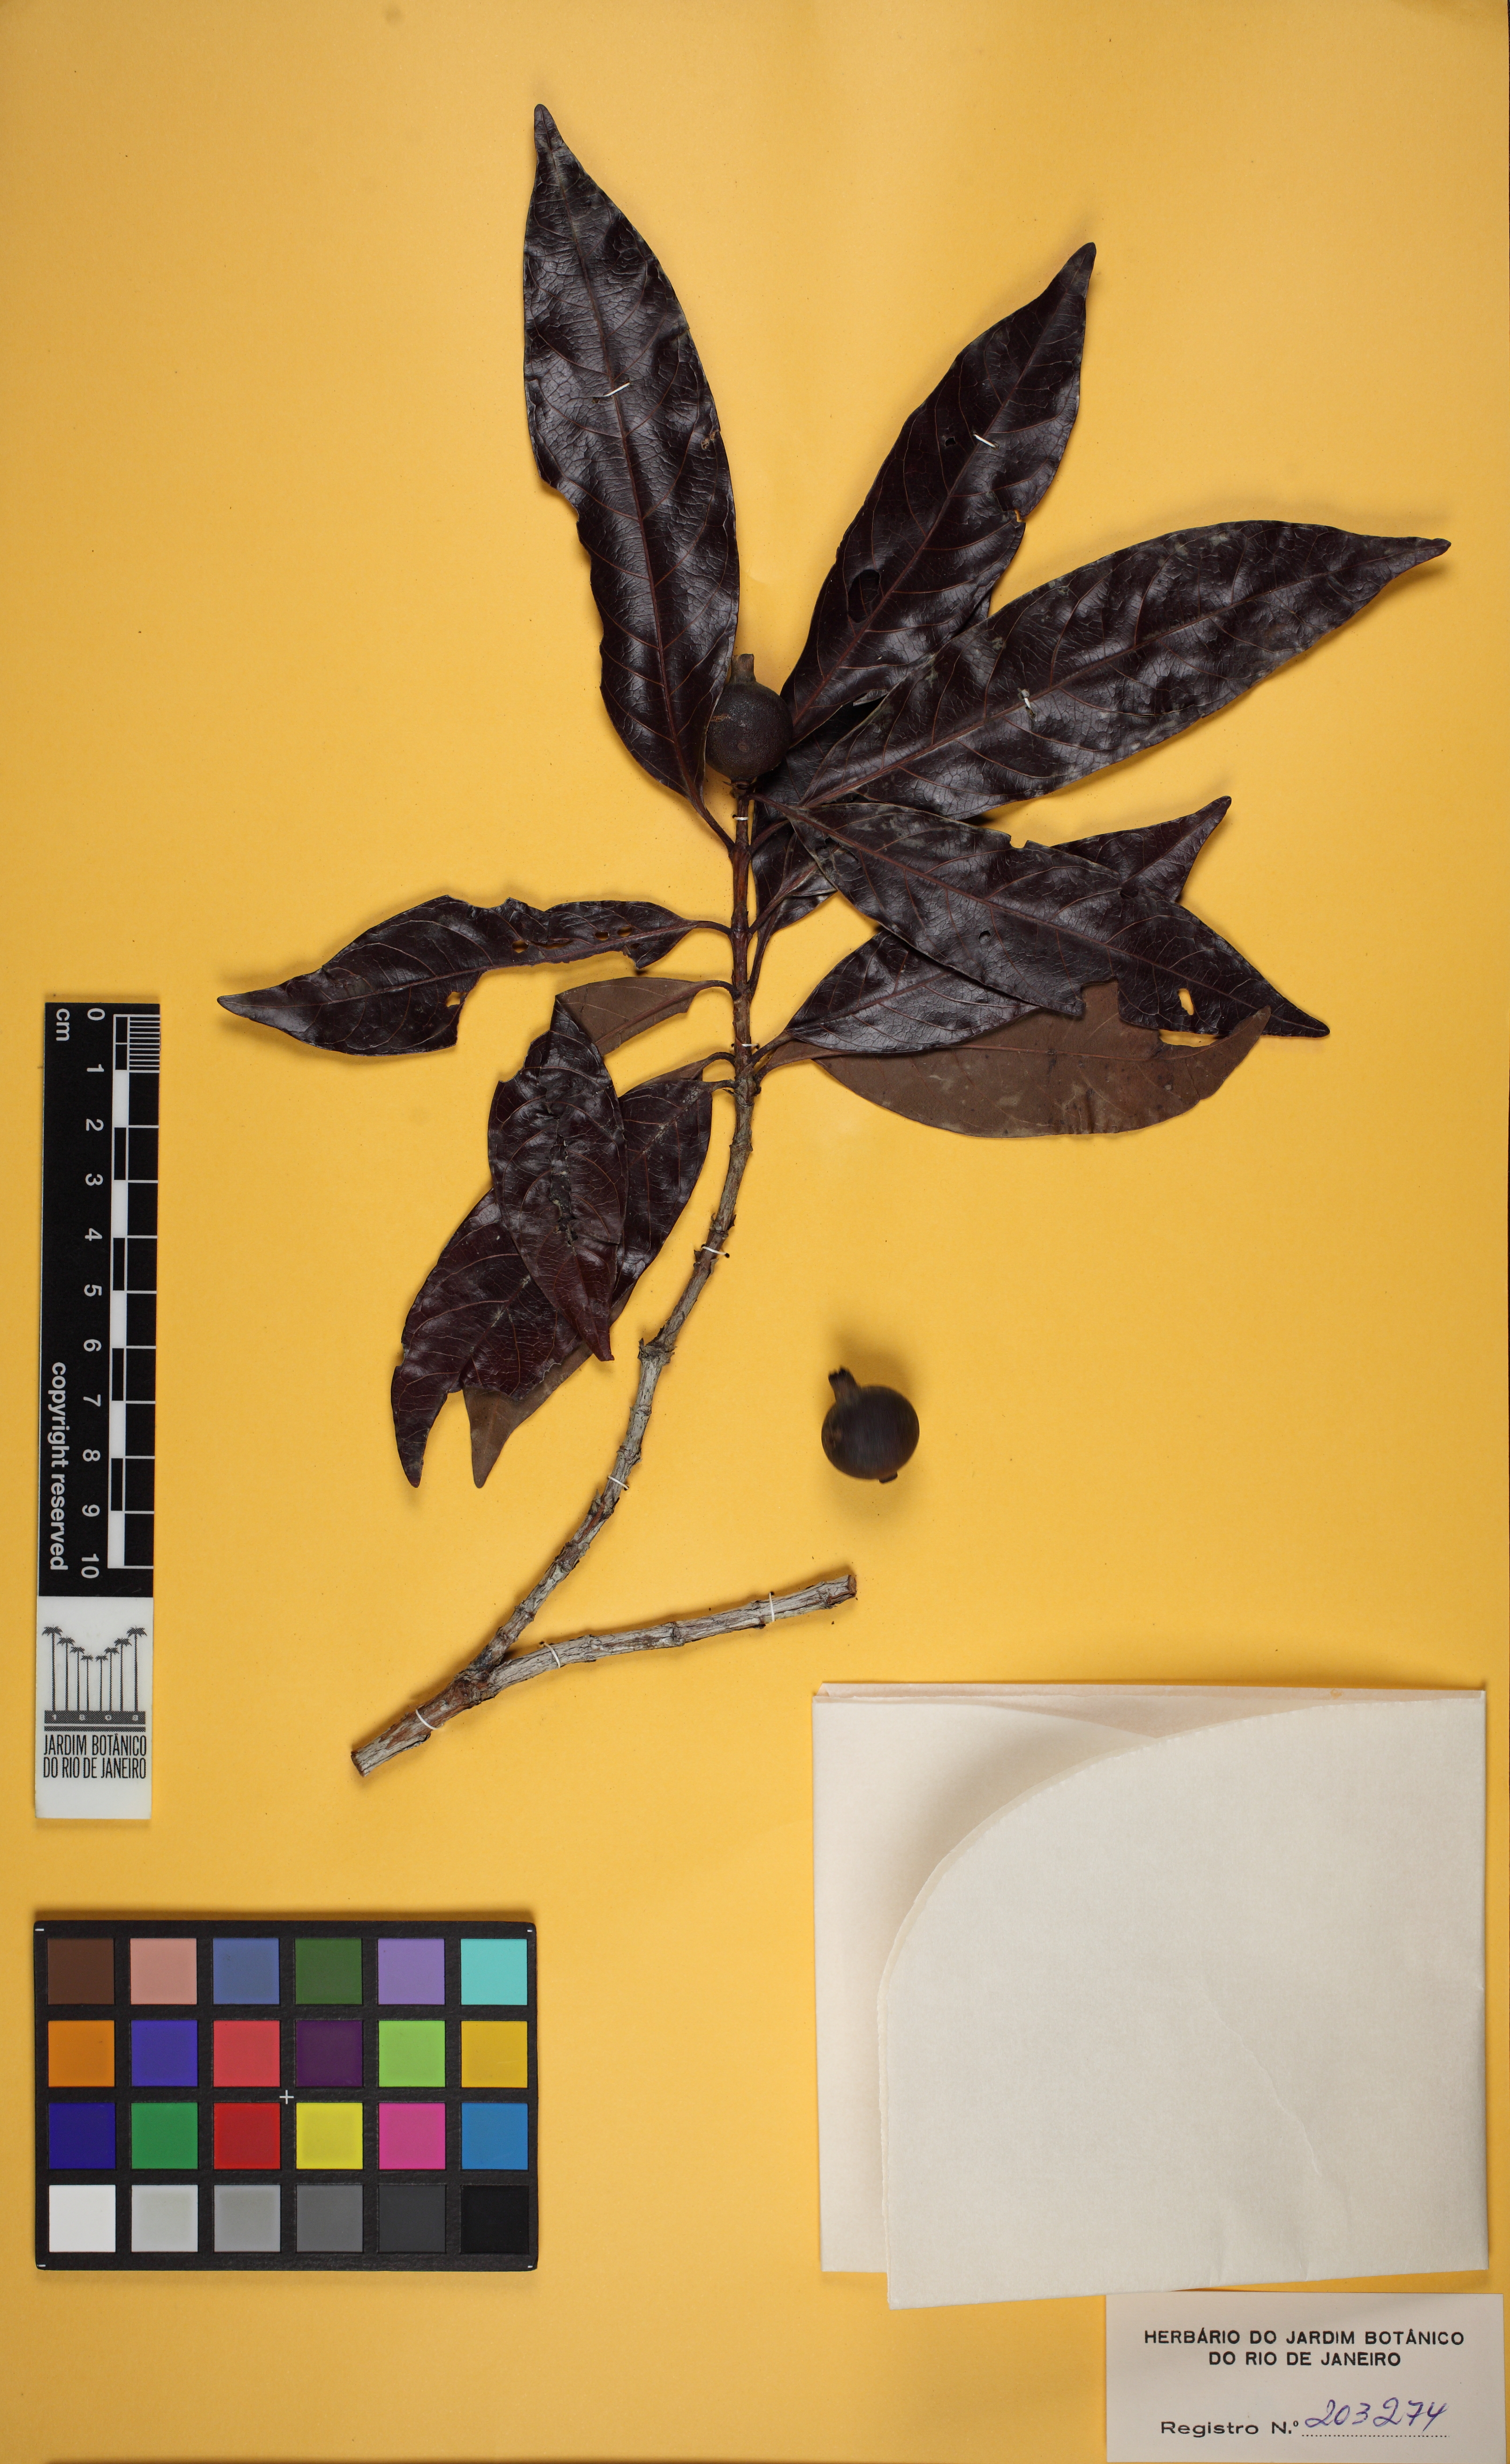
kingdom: Plantae
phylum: Tracheophyta
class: Magnoliopsida
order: Gentianales
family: Rubiaceae
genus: Alibertia
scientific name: Alibertia edulis
